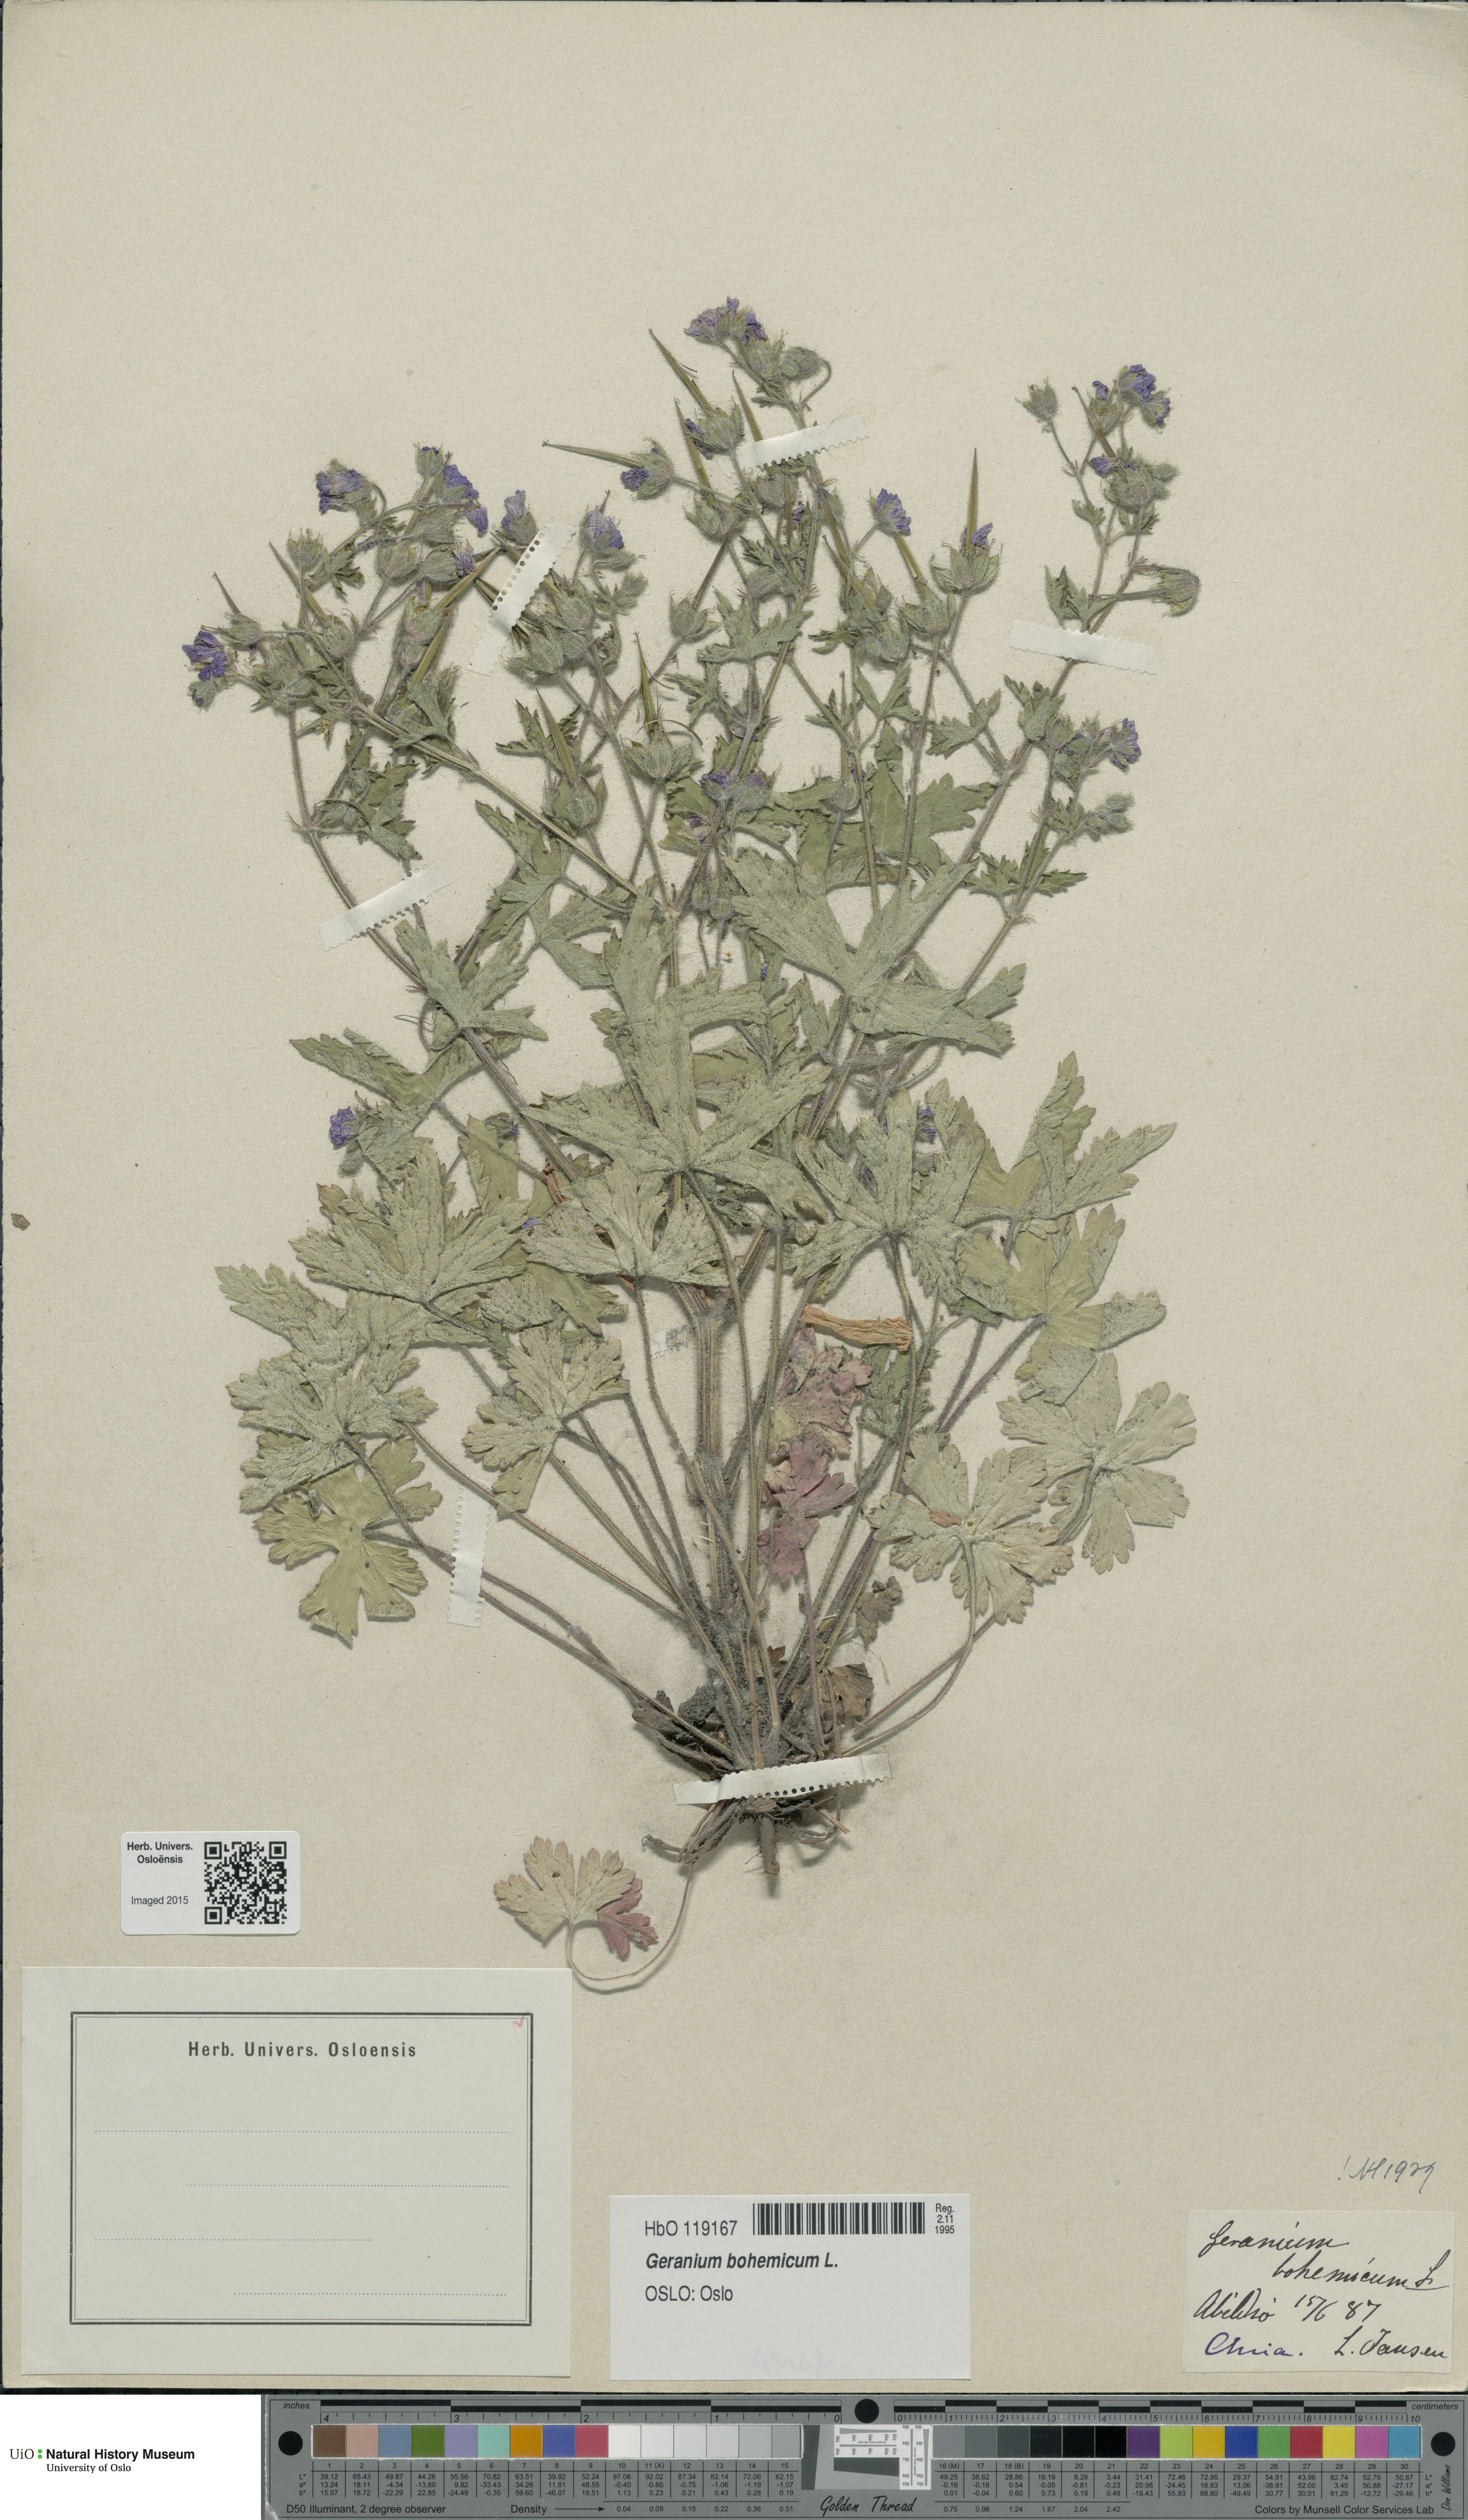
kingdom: Plantae
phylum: Tracheophyta
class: Magnoliopsida
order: Geraniales
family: Geraniaceae
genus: Geranium
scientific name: Geranium bohemicum
